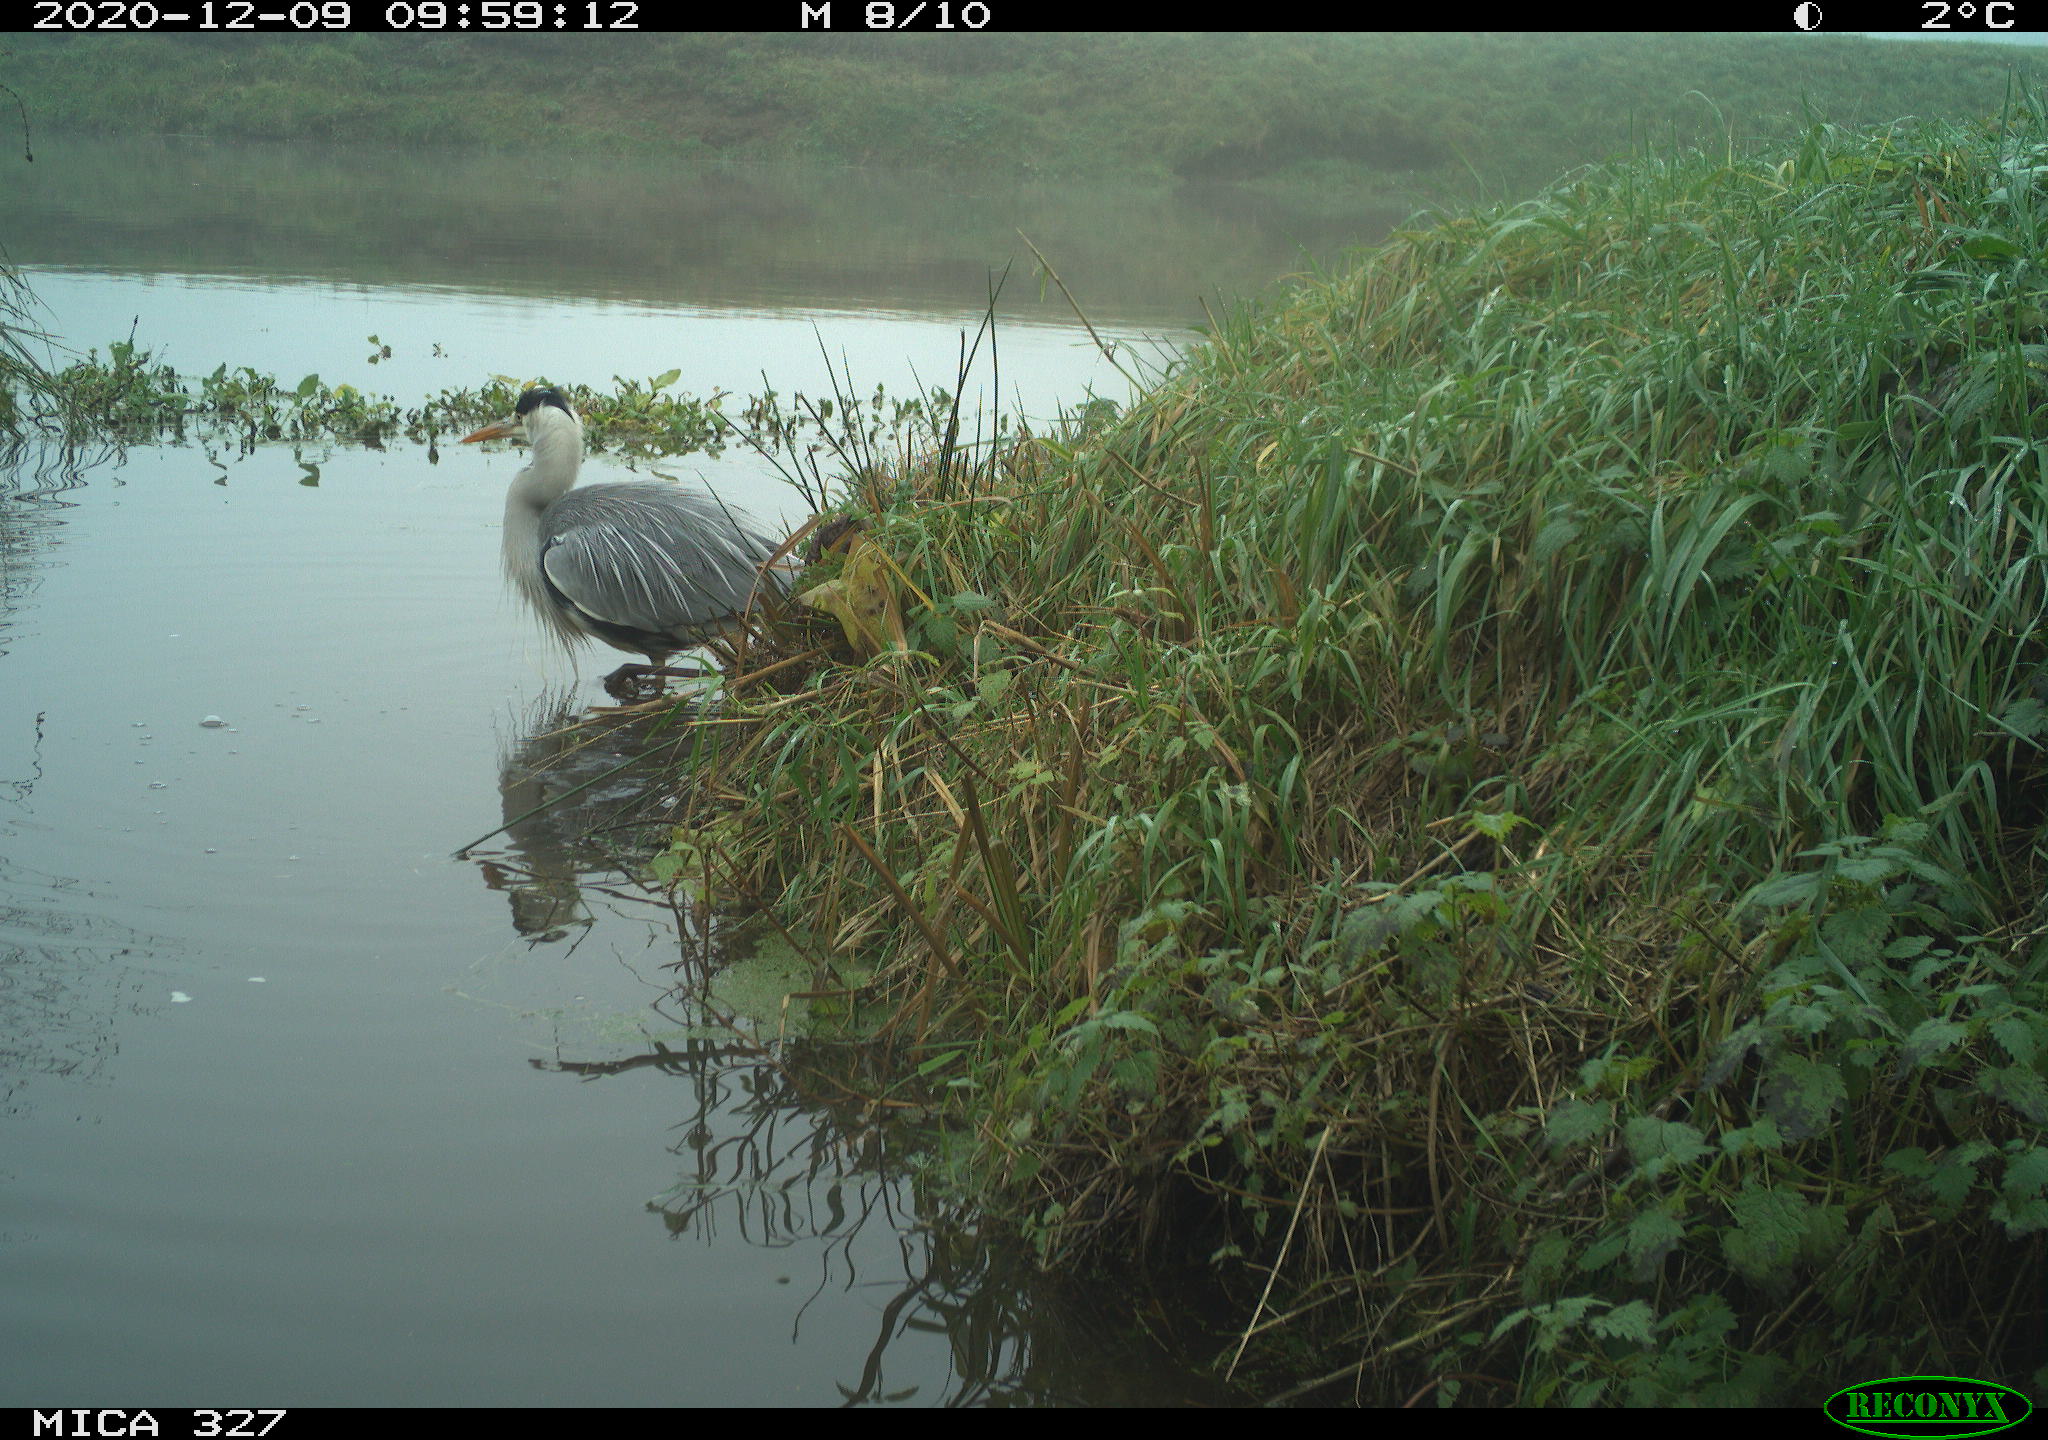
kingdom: Animalia
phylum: Chordata
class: Aves
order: Pelecaniformes
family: Ardeidae
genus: Ardea
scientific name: Ardea cinerea
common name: Grey heron
